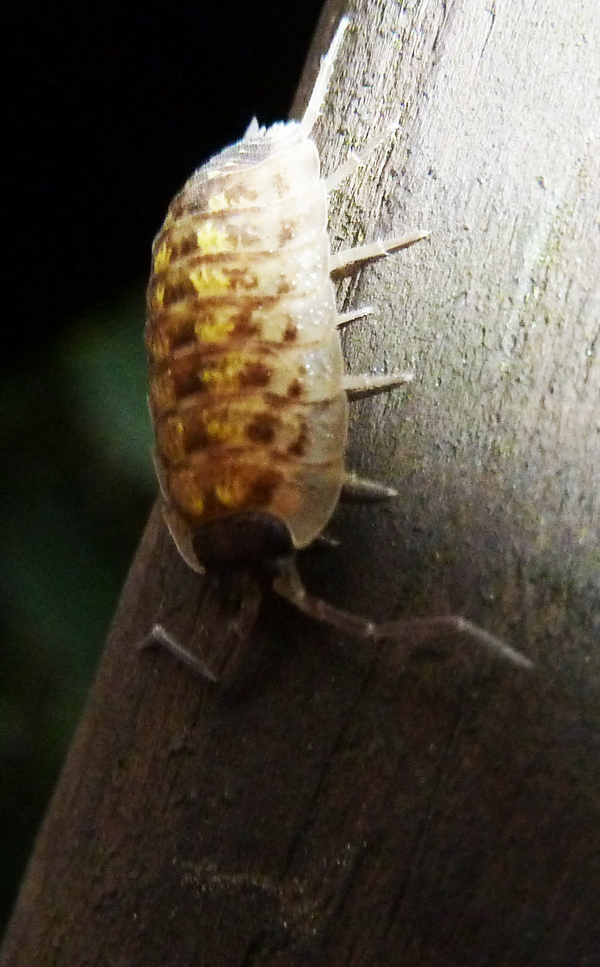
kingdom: Animalia
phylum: Arthropoda
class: Malacostraca
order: Isopoda
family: Porcellionidae
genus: Porcellio
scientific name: Porcellio scaber
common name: Common rough woodlouse
